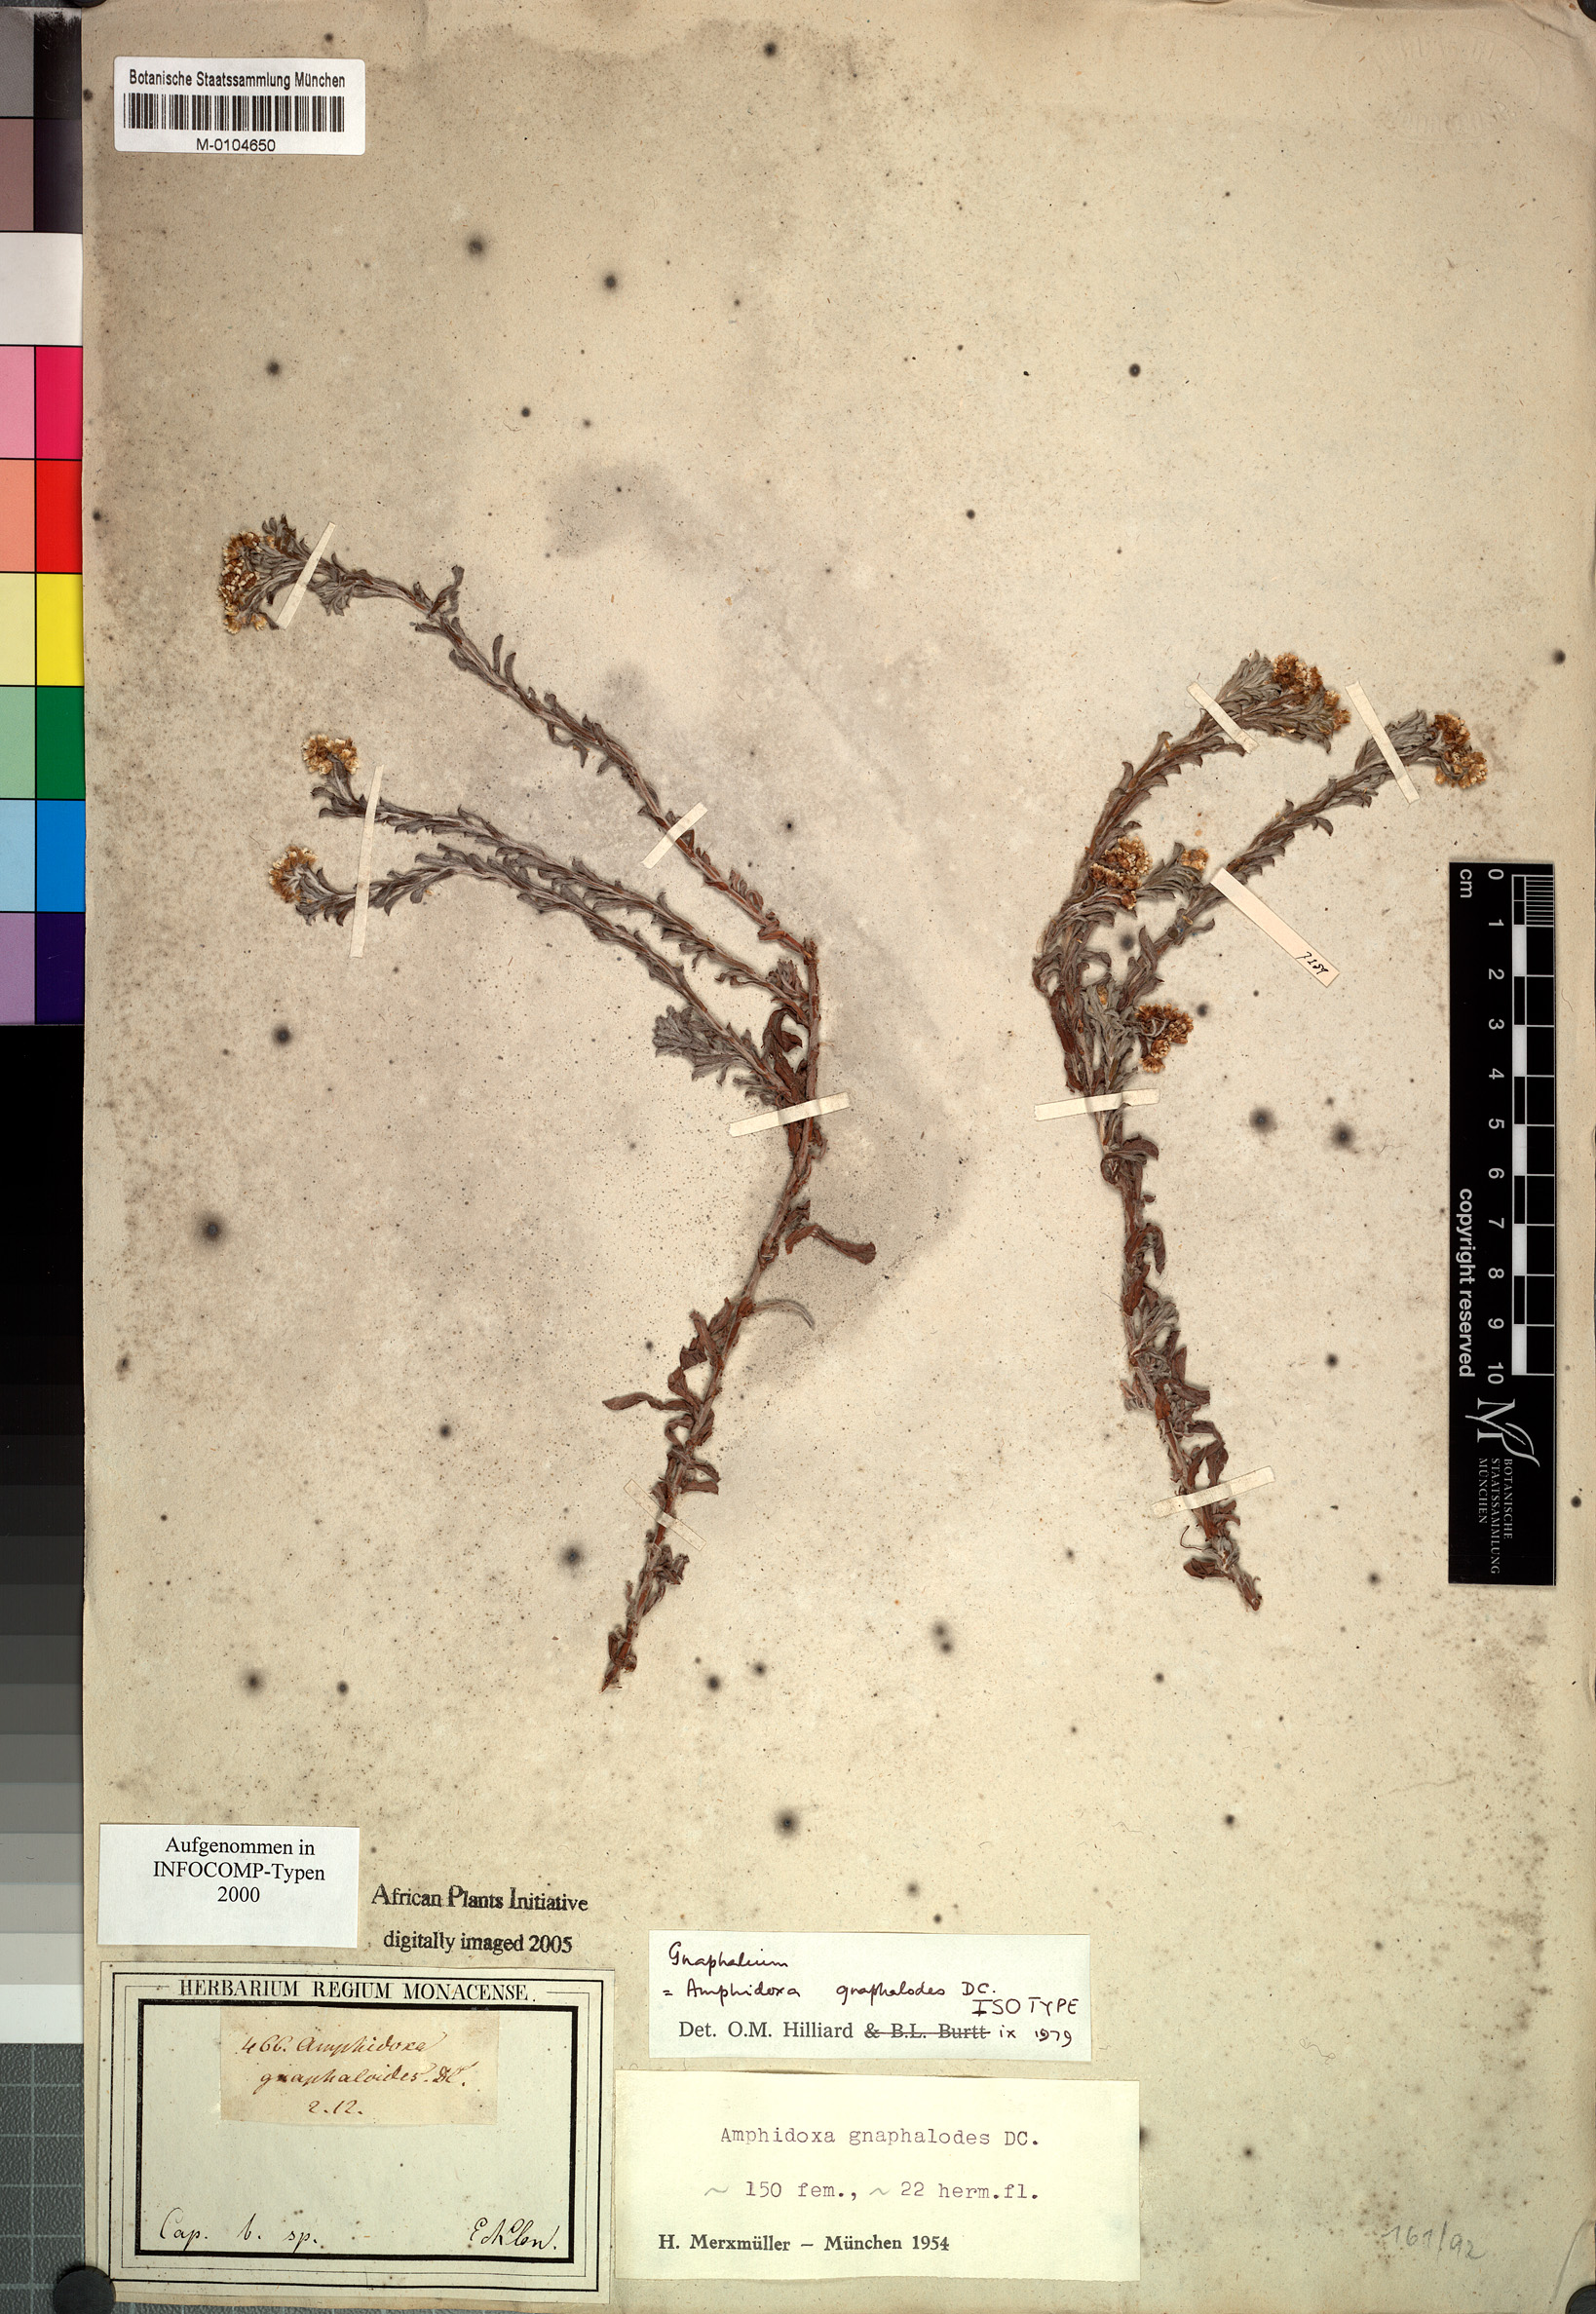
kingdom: Plantae
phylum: Tracheophyta
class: Magnoliopsida
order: Asterales
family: Asteraceae
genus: Gnaphalium
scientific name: Gnaphalium gnaphalodes
